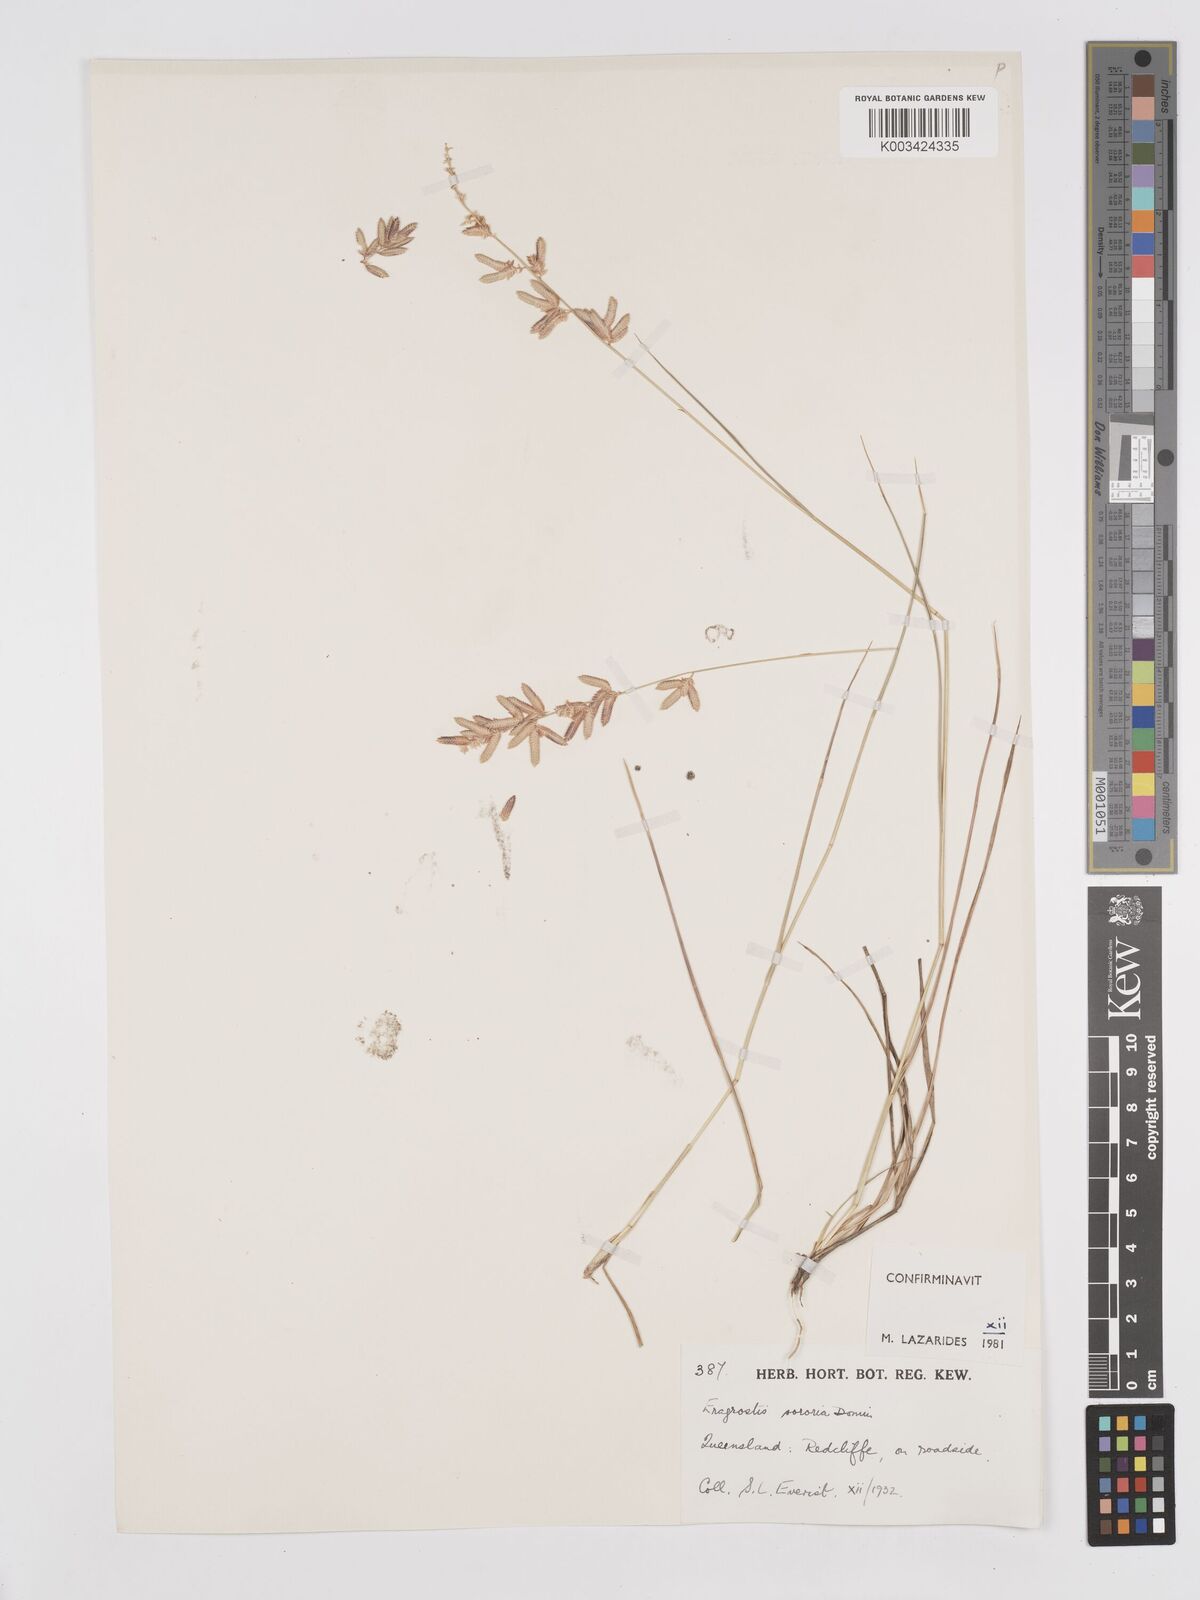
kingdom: Plantae
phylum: Tracheophyta
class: Liliopsida
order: Poales
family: Poaceae
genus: Eragrostis
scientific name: Eragrostis sororia
